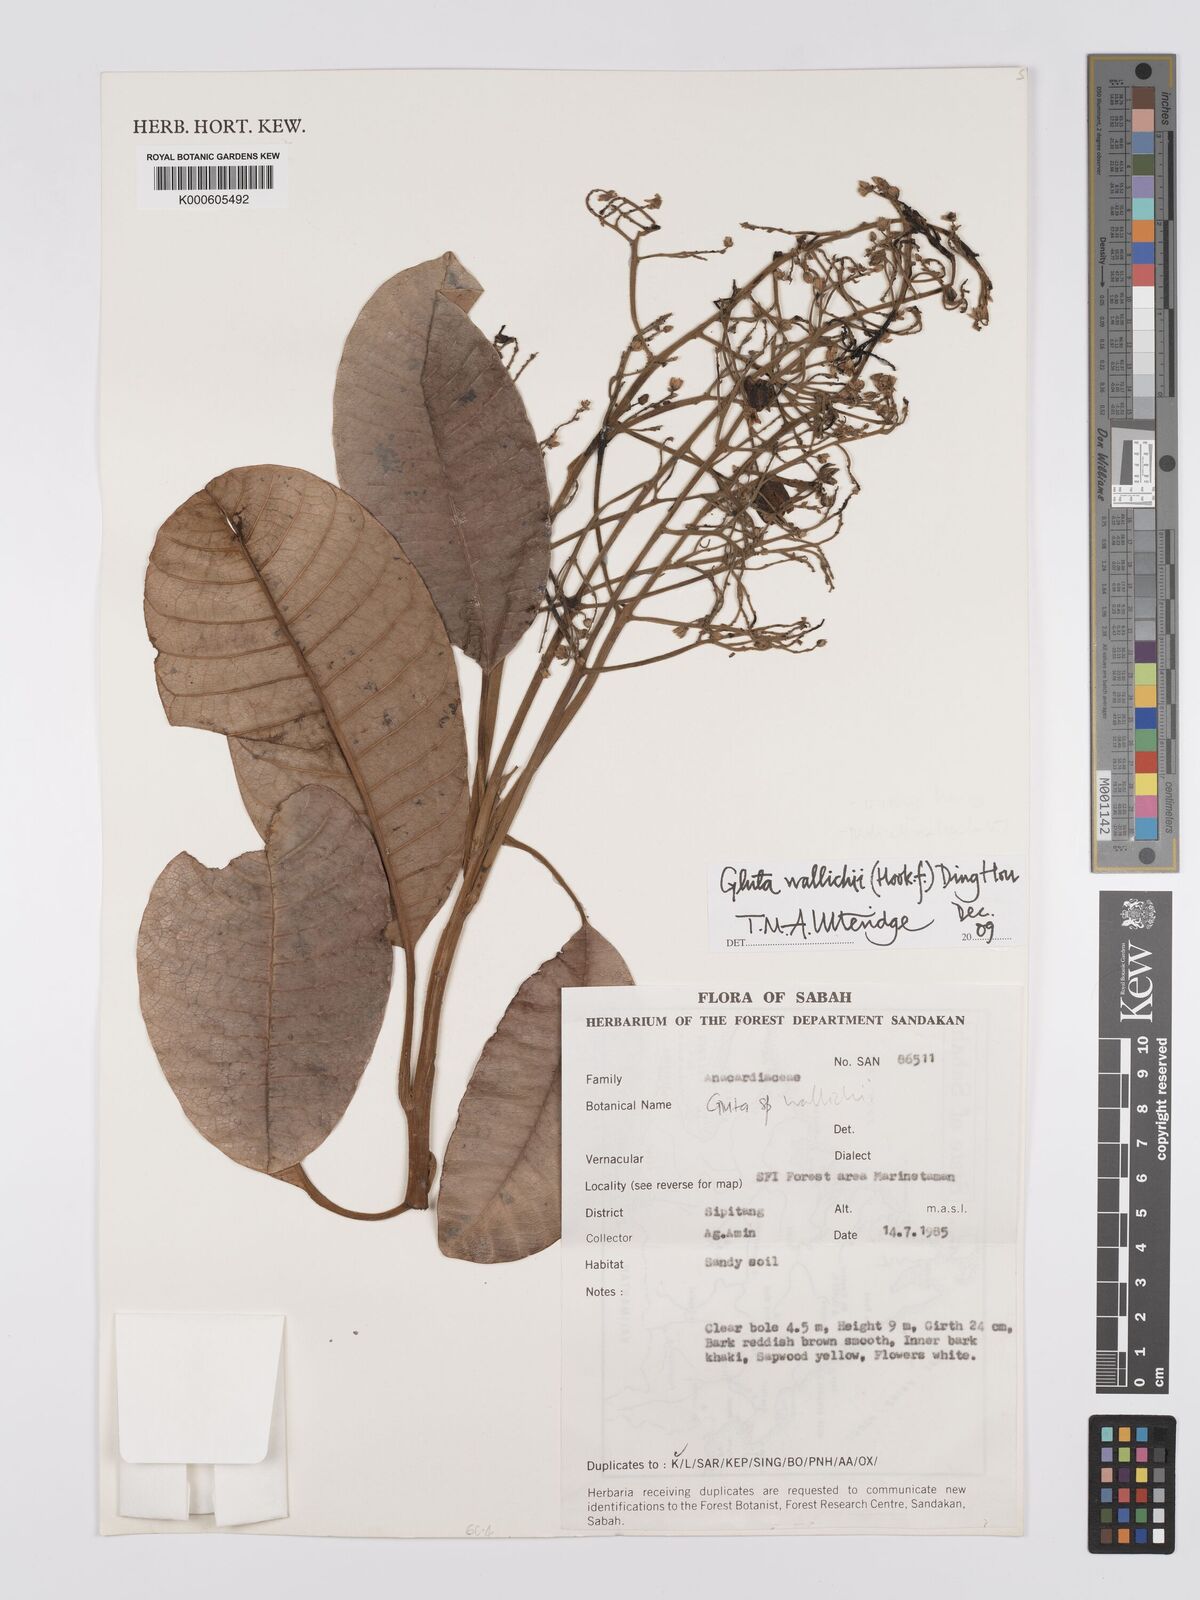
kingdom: Plantae
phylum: Tracheophyta
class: Magnoliopsida
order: Sapindales
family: Anacardiaceae
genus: Gluta
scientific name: Gluta wallichii
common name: Common rengas
